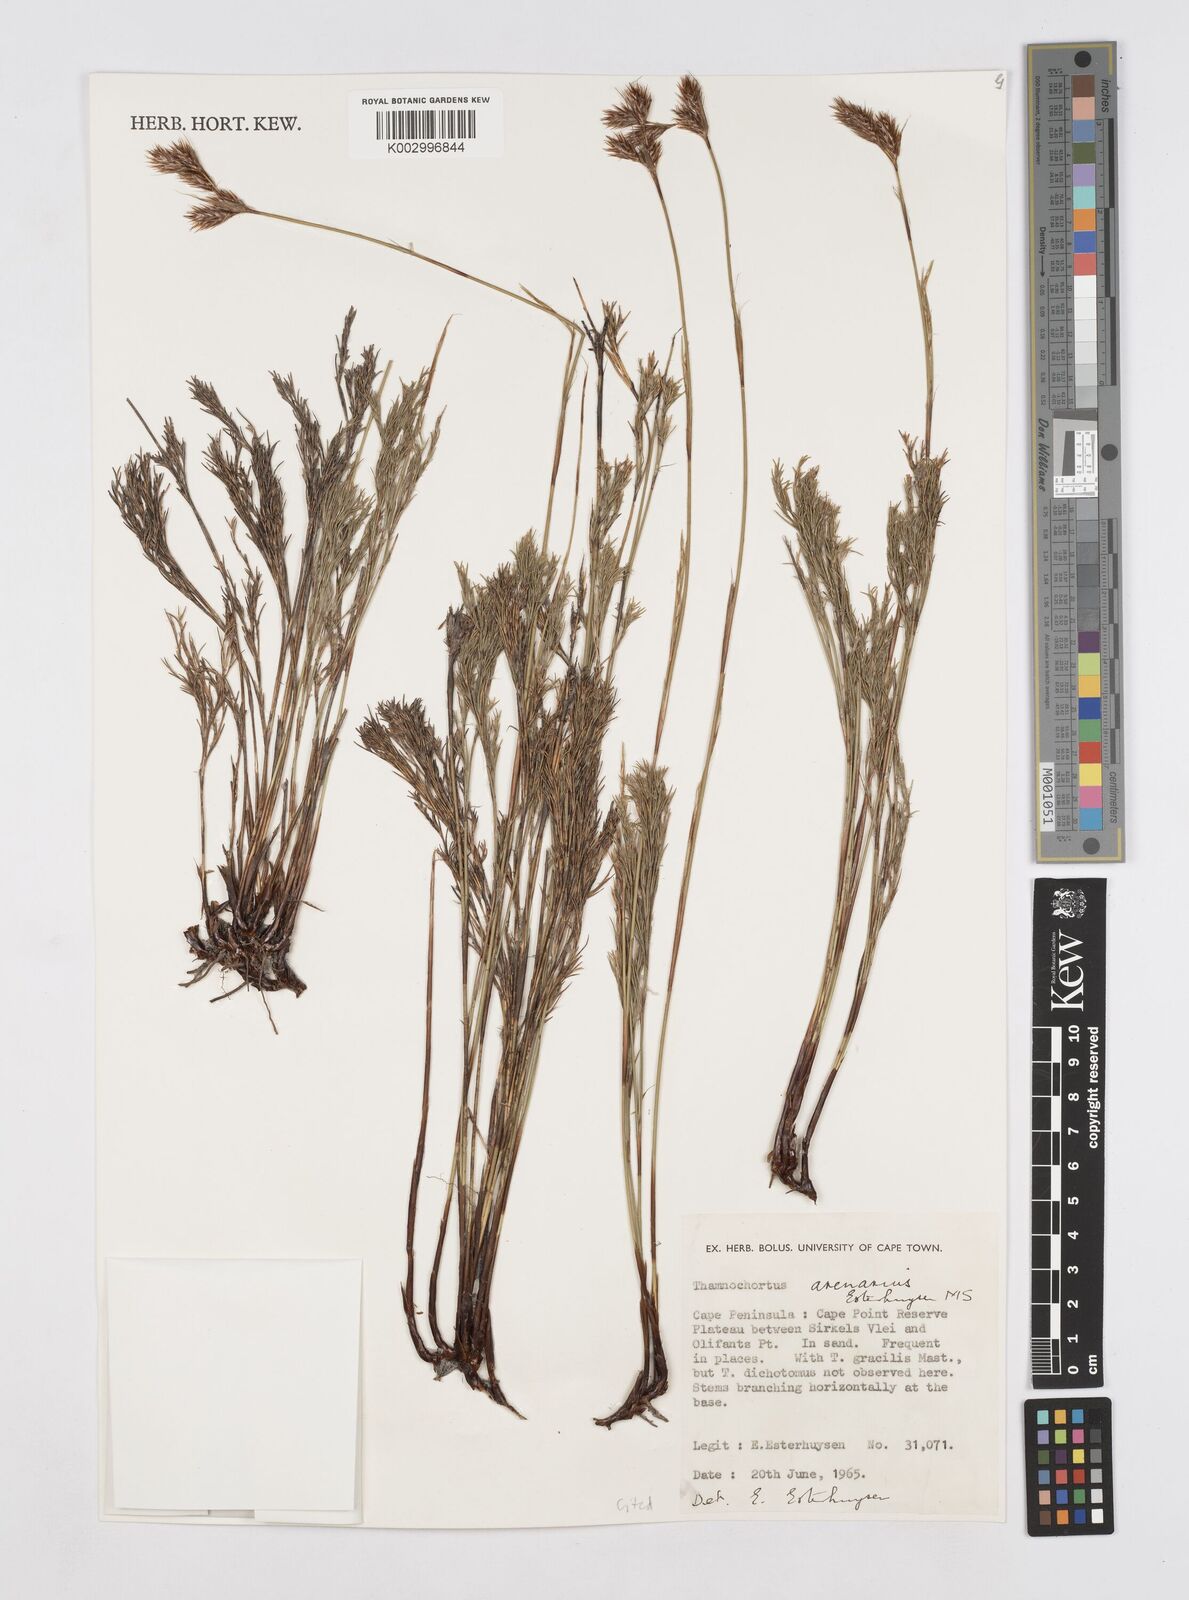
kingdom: Plantae
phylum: Tracheophyta
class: Liliopsida
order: Poales
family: Restionaceae
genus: Thamnochortus
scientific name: Thamnochortus arenarius
